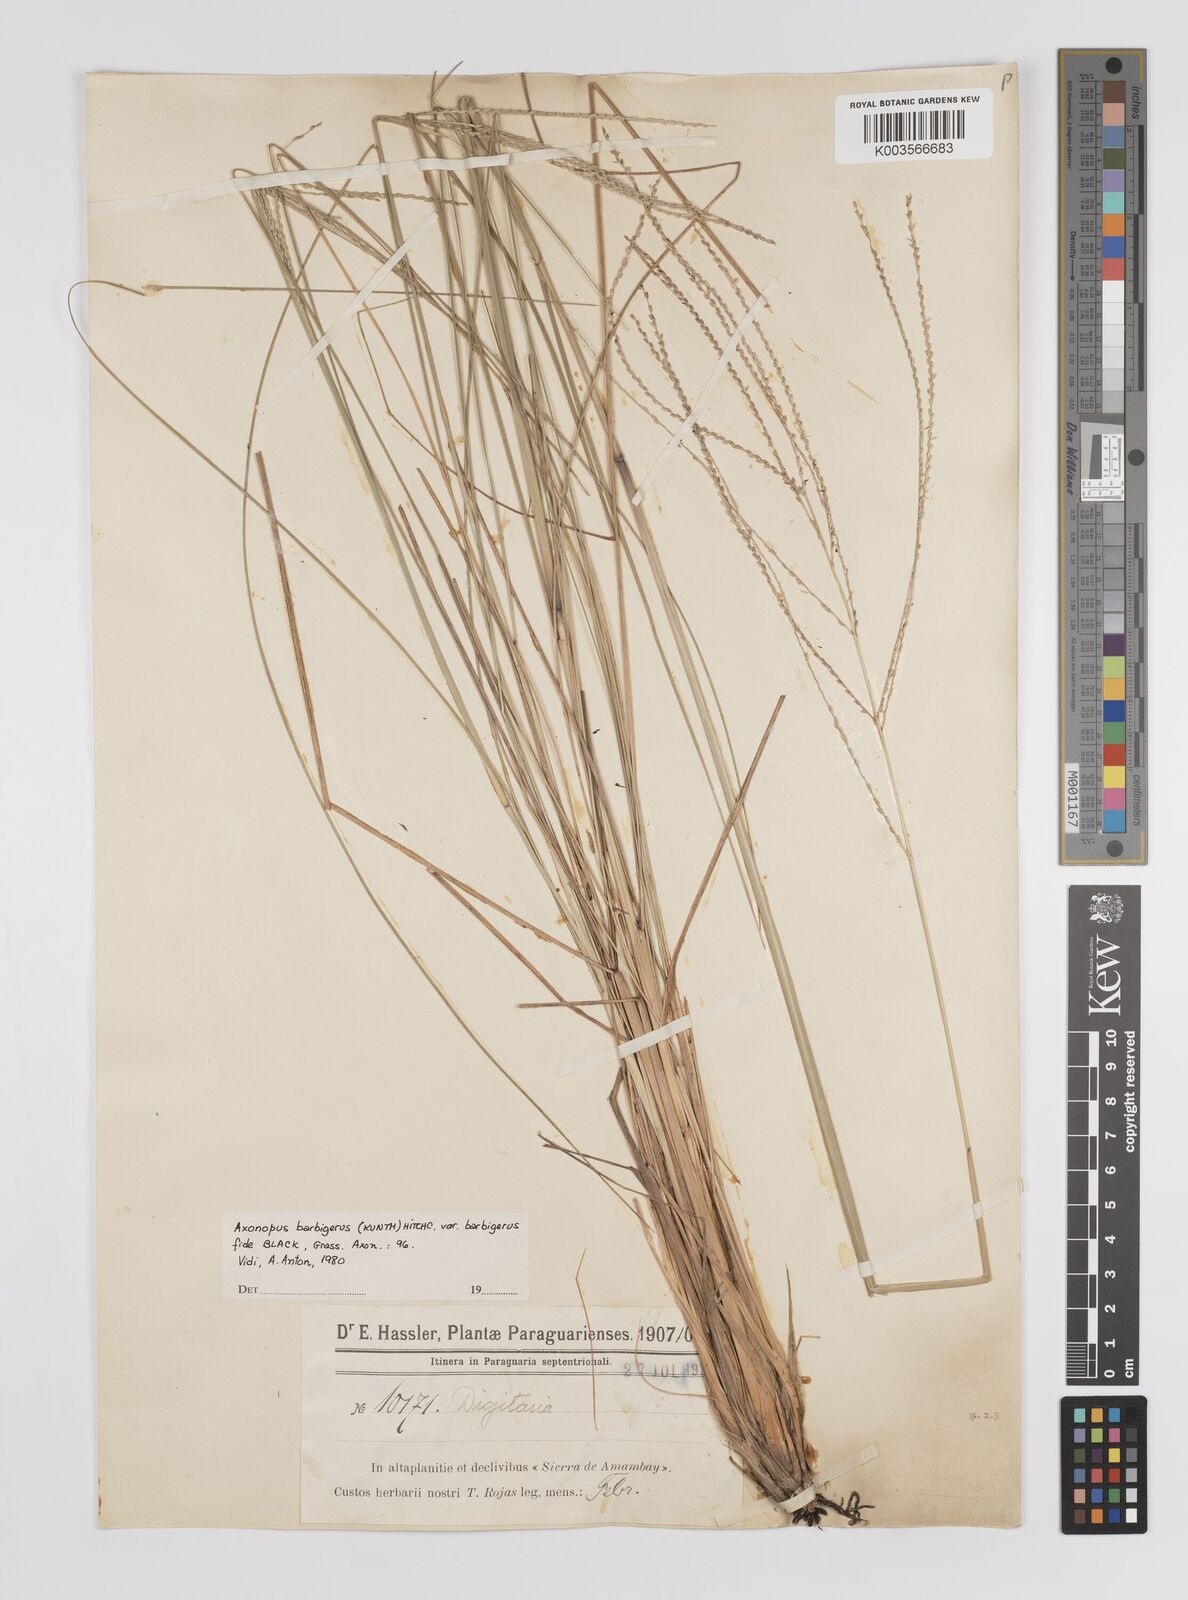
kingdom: Plantae
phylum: Tracheophyta
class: Liliopsida
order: Poales
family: Poaceae
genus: Axonopus
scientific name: Axonopus siccus
